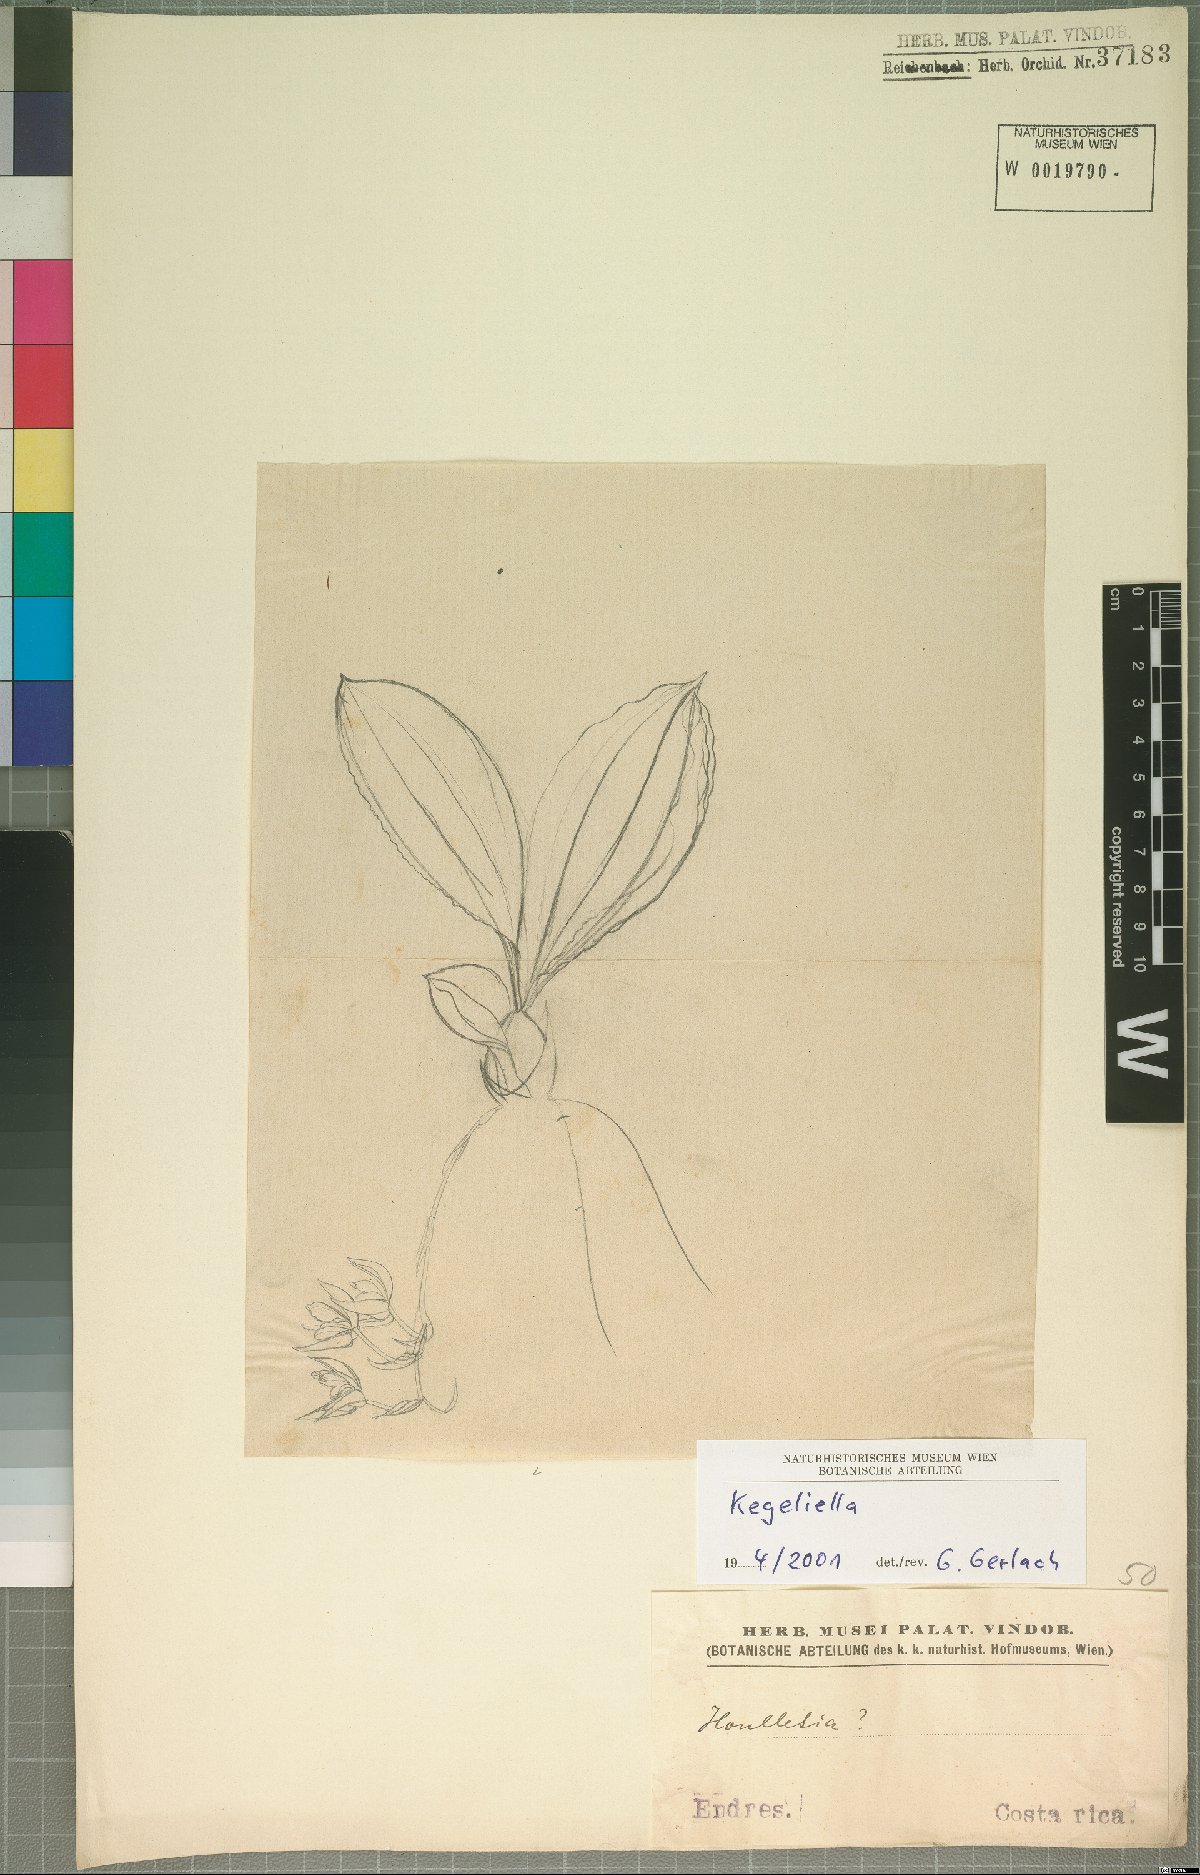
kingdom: Plantae
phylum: Tracheophyta
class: Liliopsida
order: Asparagales
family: Orchidaceae
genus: Kegeliella
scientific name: Kegeliella
